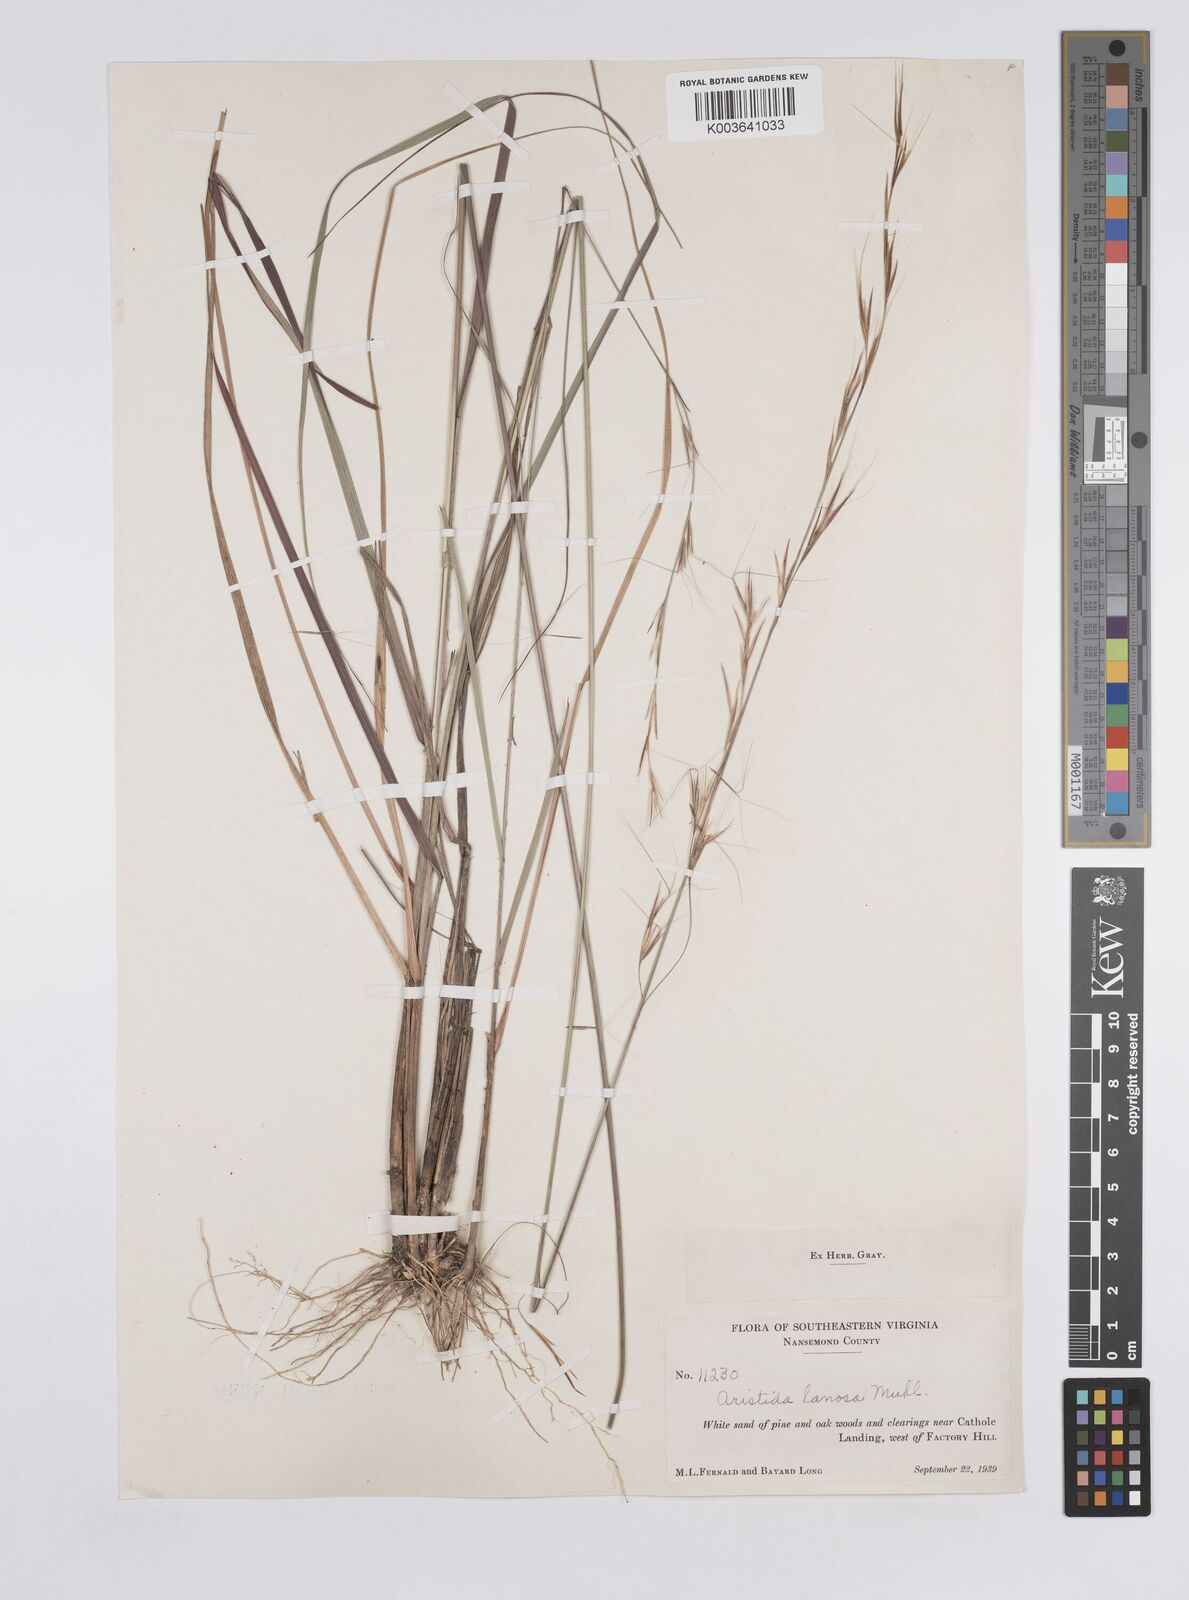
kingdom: Plantae
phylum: Tracheophyta
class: Liliopsida
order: Poales
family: Poaceae
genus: Aristida
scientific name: Aristida lanosa
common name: Woolly three-awn
